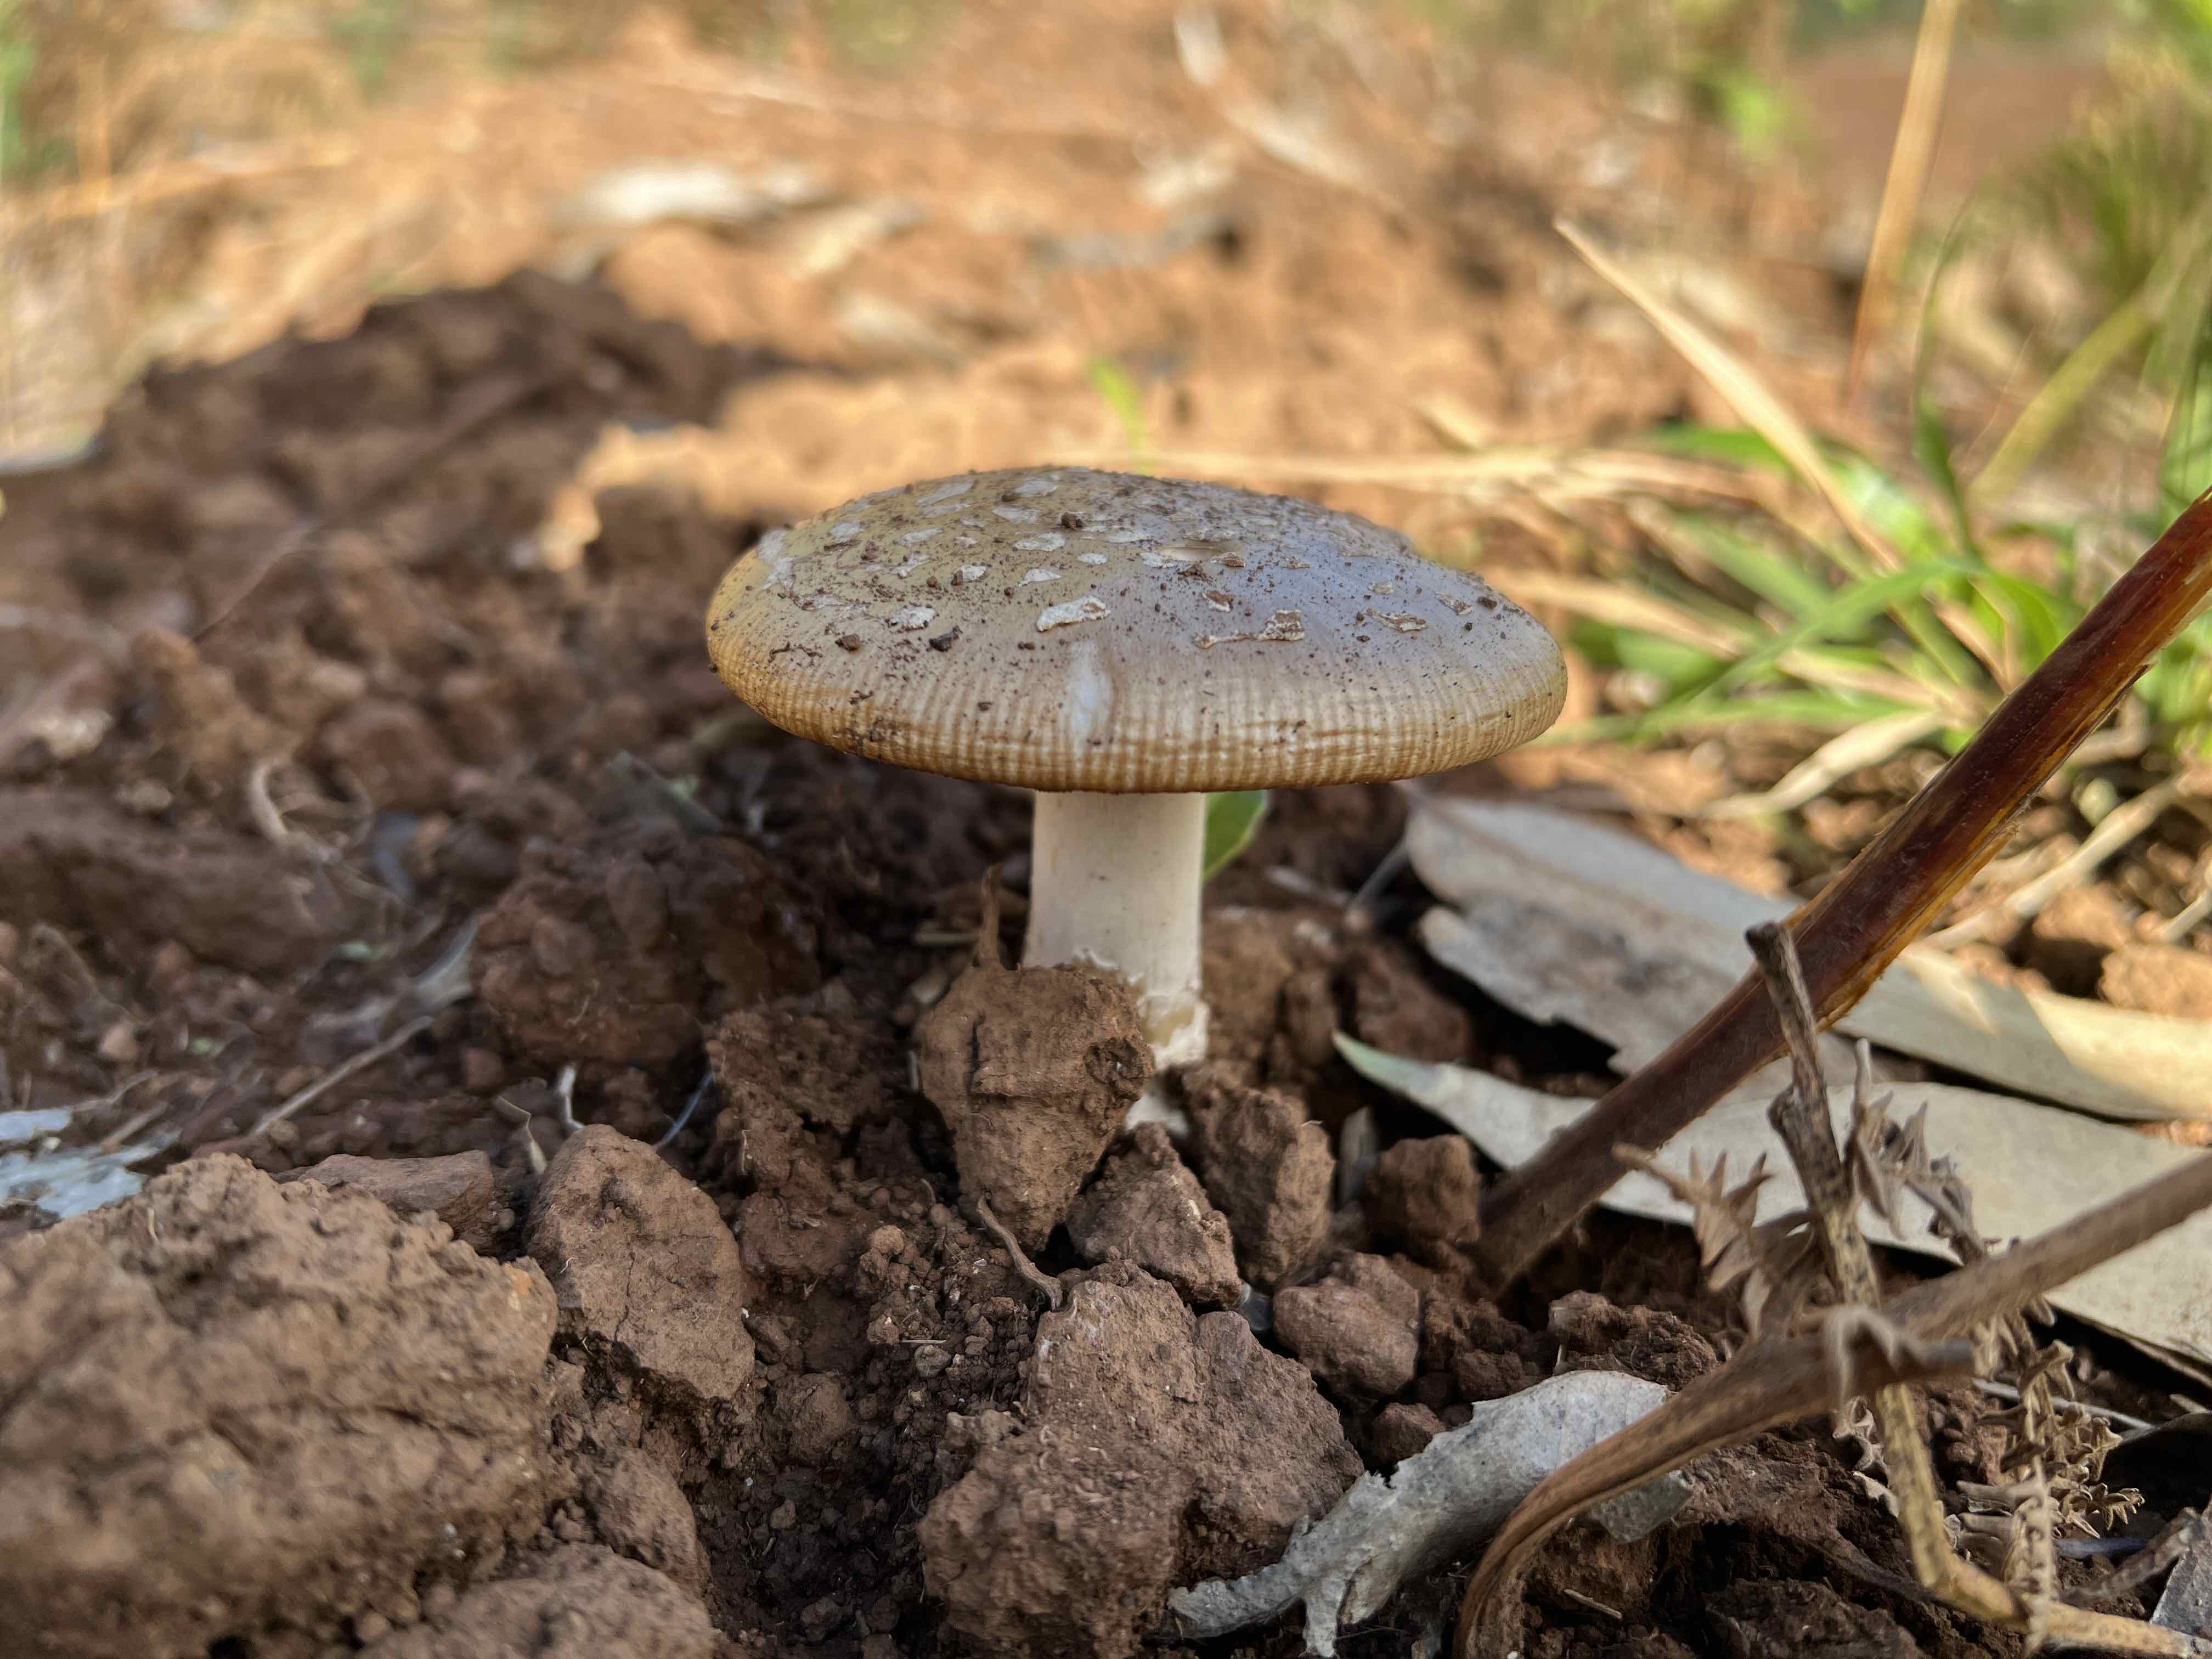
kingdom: Fungi
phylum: Basidiomycota
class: Agaricomycetes
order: Agaricales
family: Amanitaceae
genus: Amanita
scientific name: Amanita
